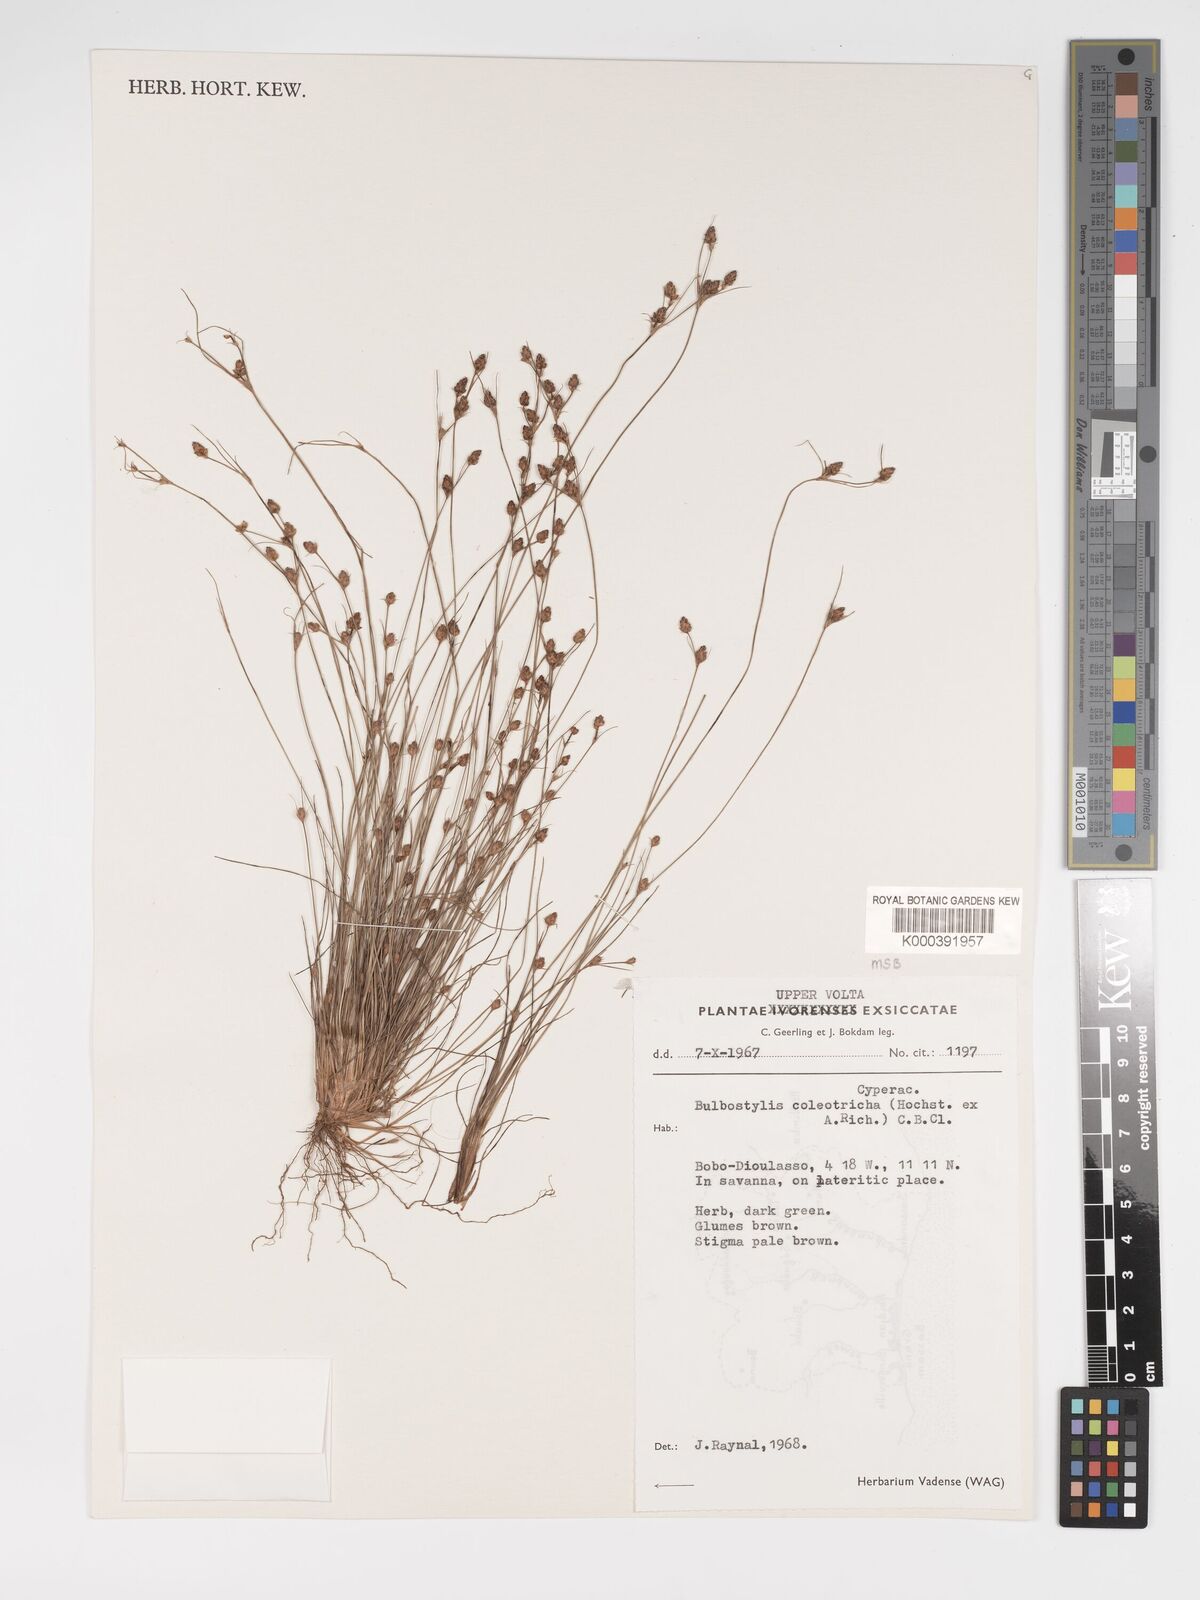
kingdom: Plantae
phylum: Tracheophyta
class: Liliopsida
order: Poales
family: Cyperaceae
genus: Bulbostylis
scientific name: Bulbostylis coleotricha
